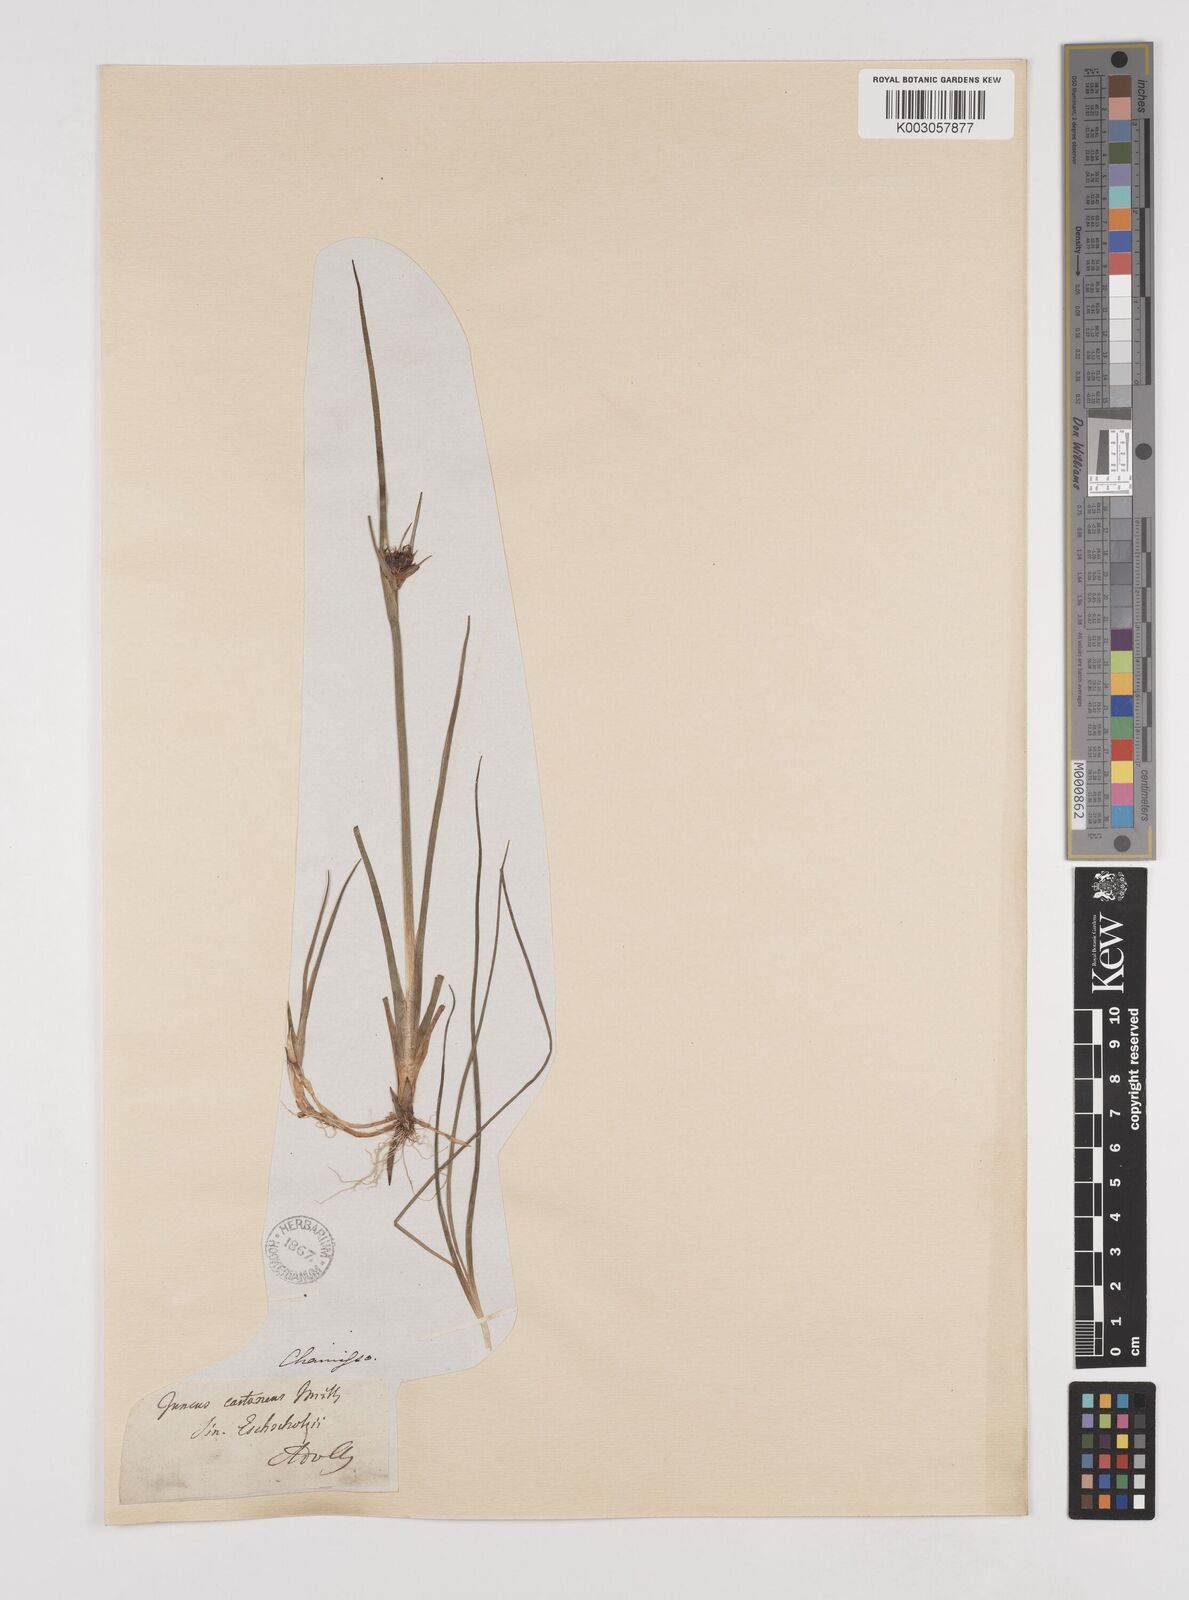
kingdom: Plantae
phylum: Tracheophyta
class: Liliopsida
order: Poales
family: Juncaceae
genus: Juncus
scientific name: Juncus castaneus
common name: Chestnut rush
